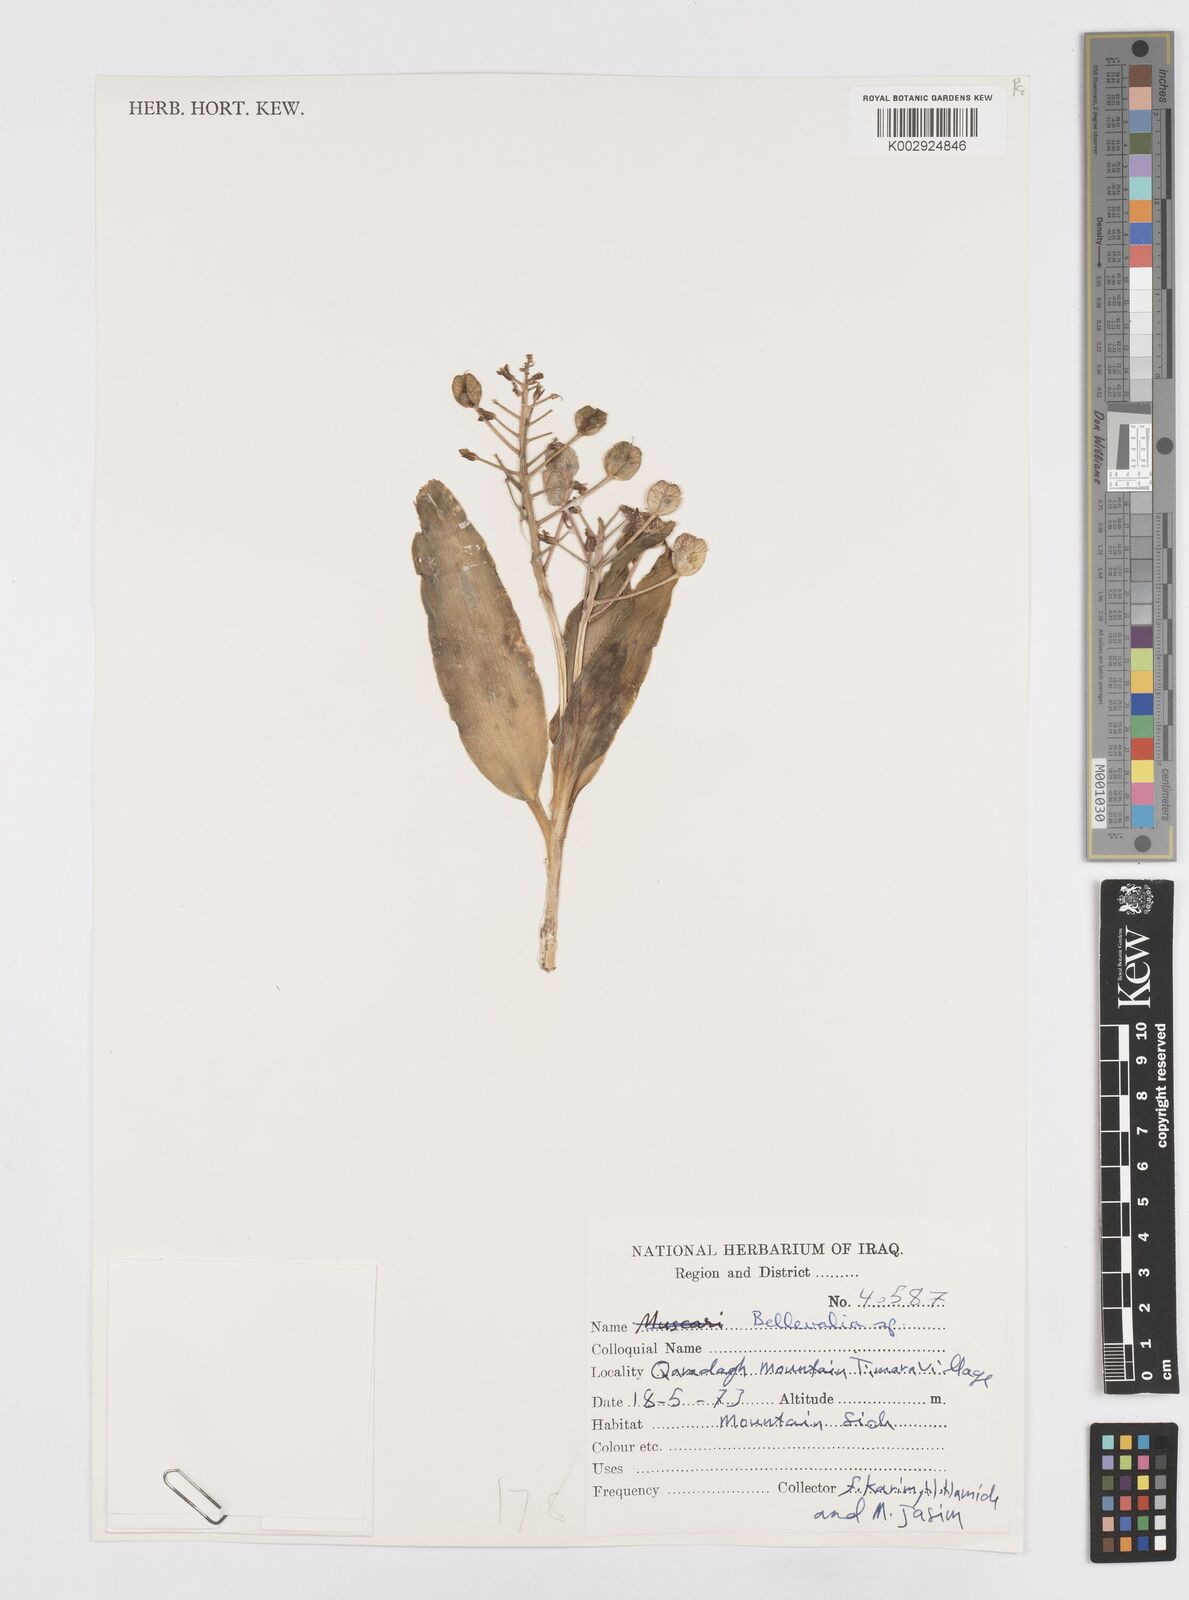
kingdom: Plantae
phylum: Tracheophyta
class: Liliopsida
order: Asparagales
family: Asparagaceae
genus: Bellevalia
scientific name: Bellevalia
